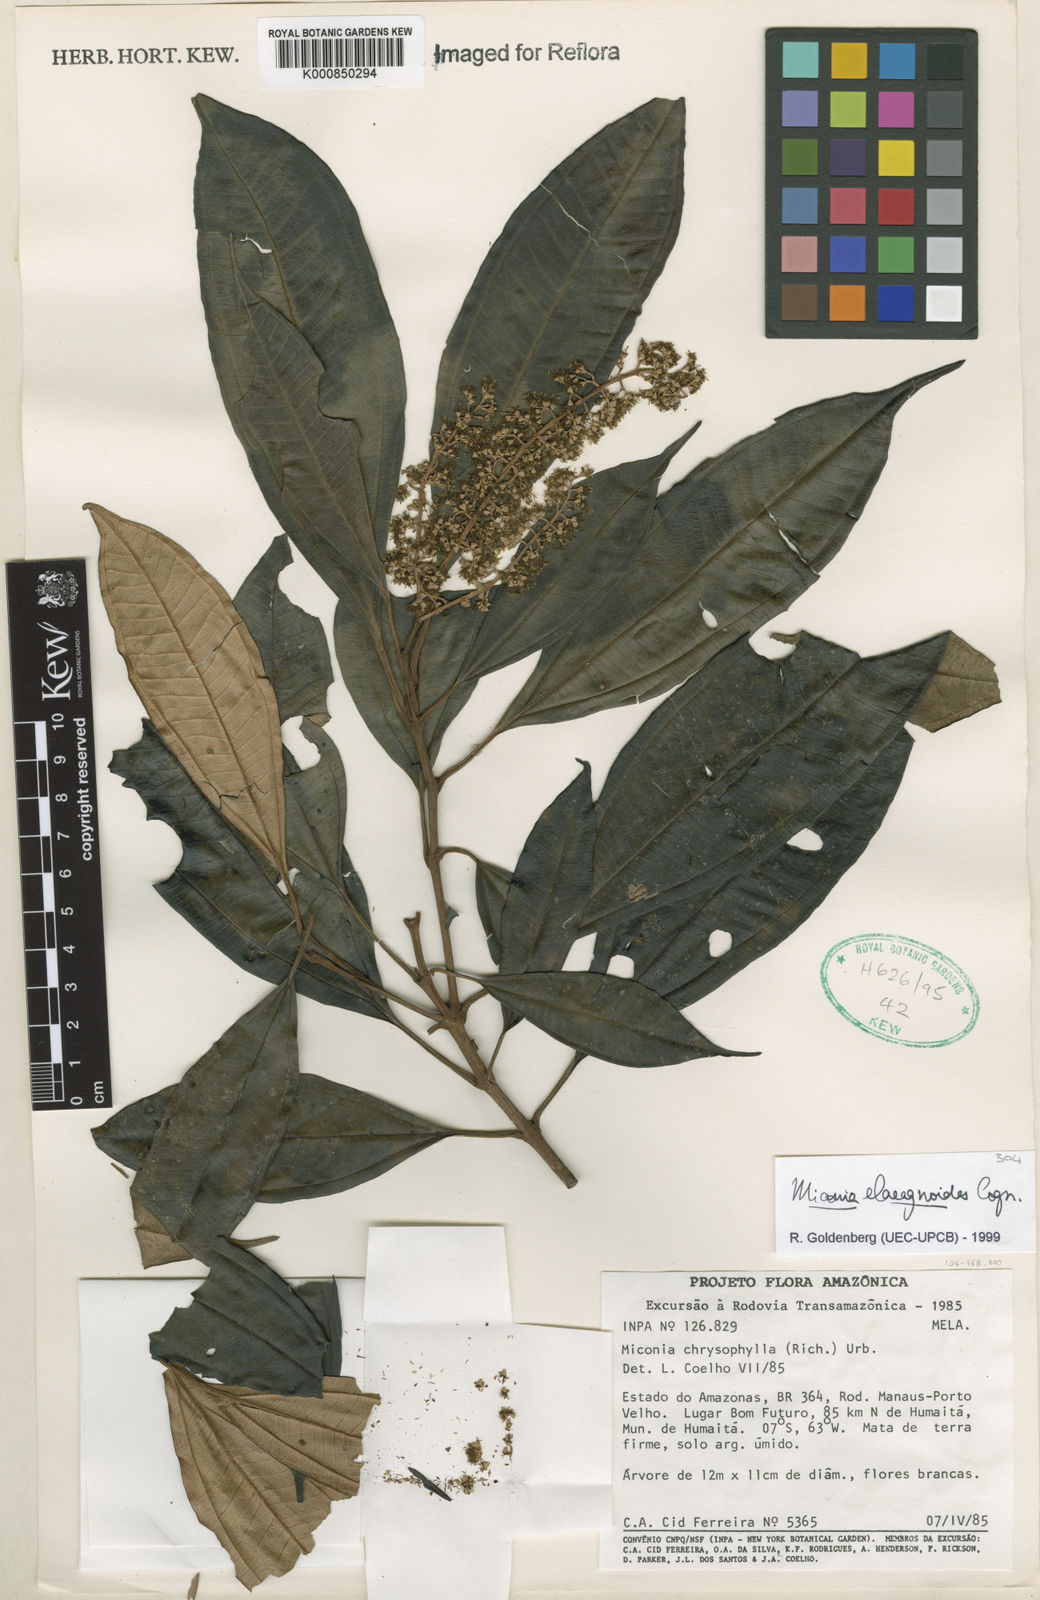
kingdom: Plantae
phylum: Tracheophyta
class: Magnoliopsida
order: Myrtales
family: Melastomataceae
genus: Miconia
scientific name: Miconia
